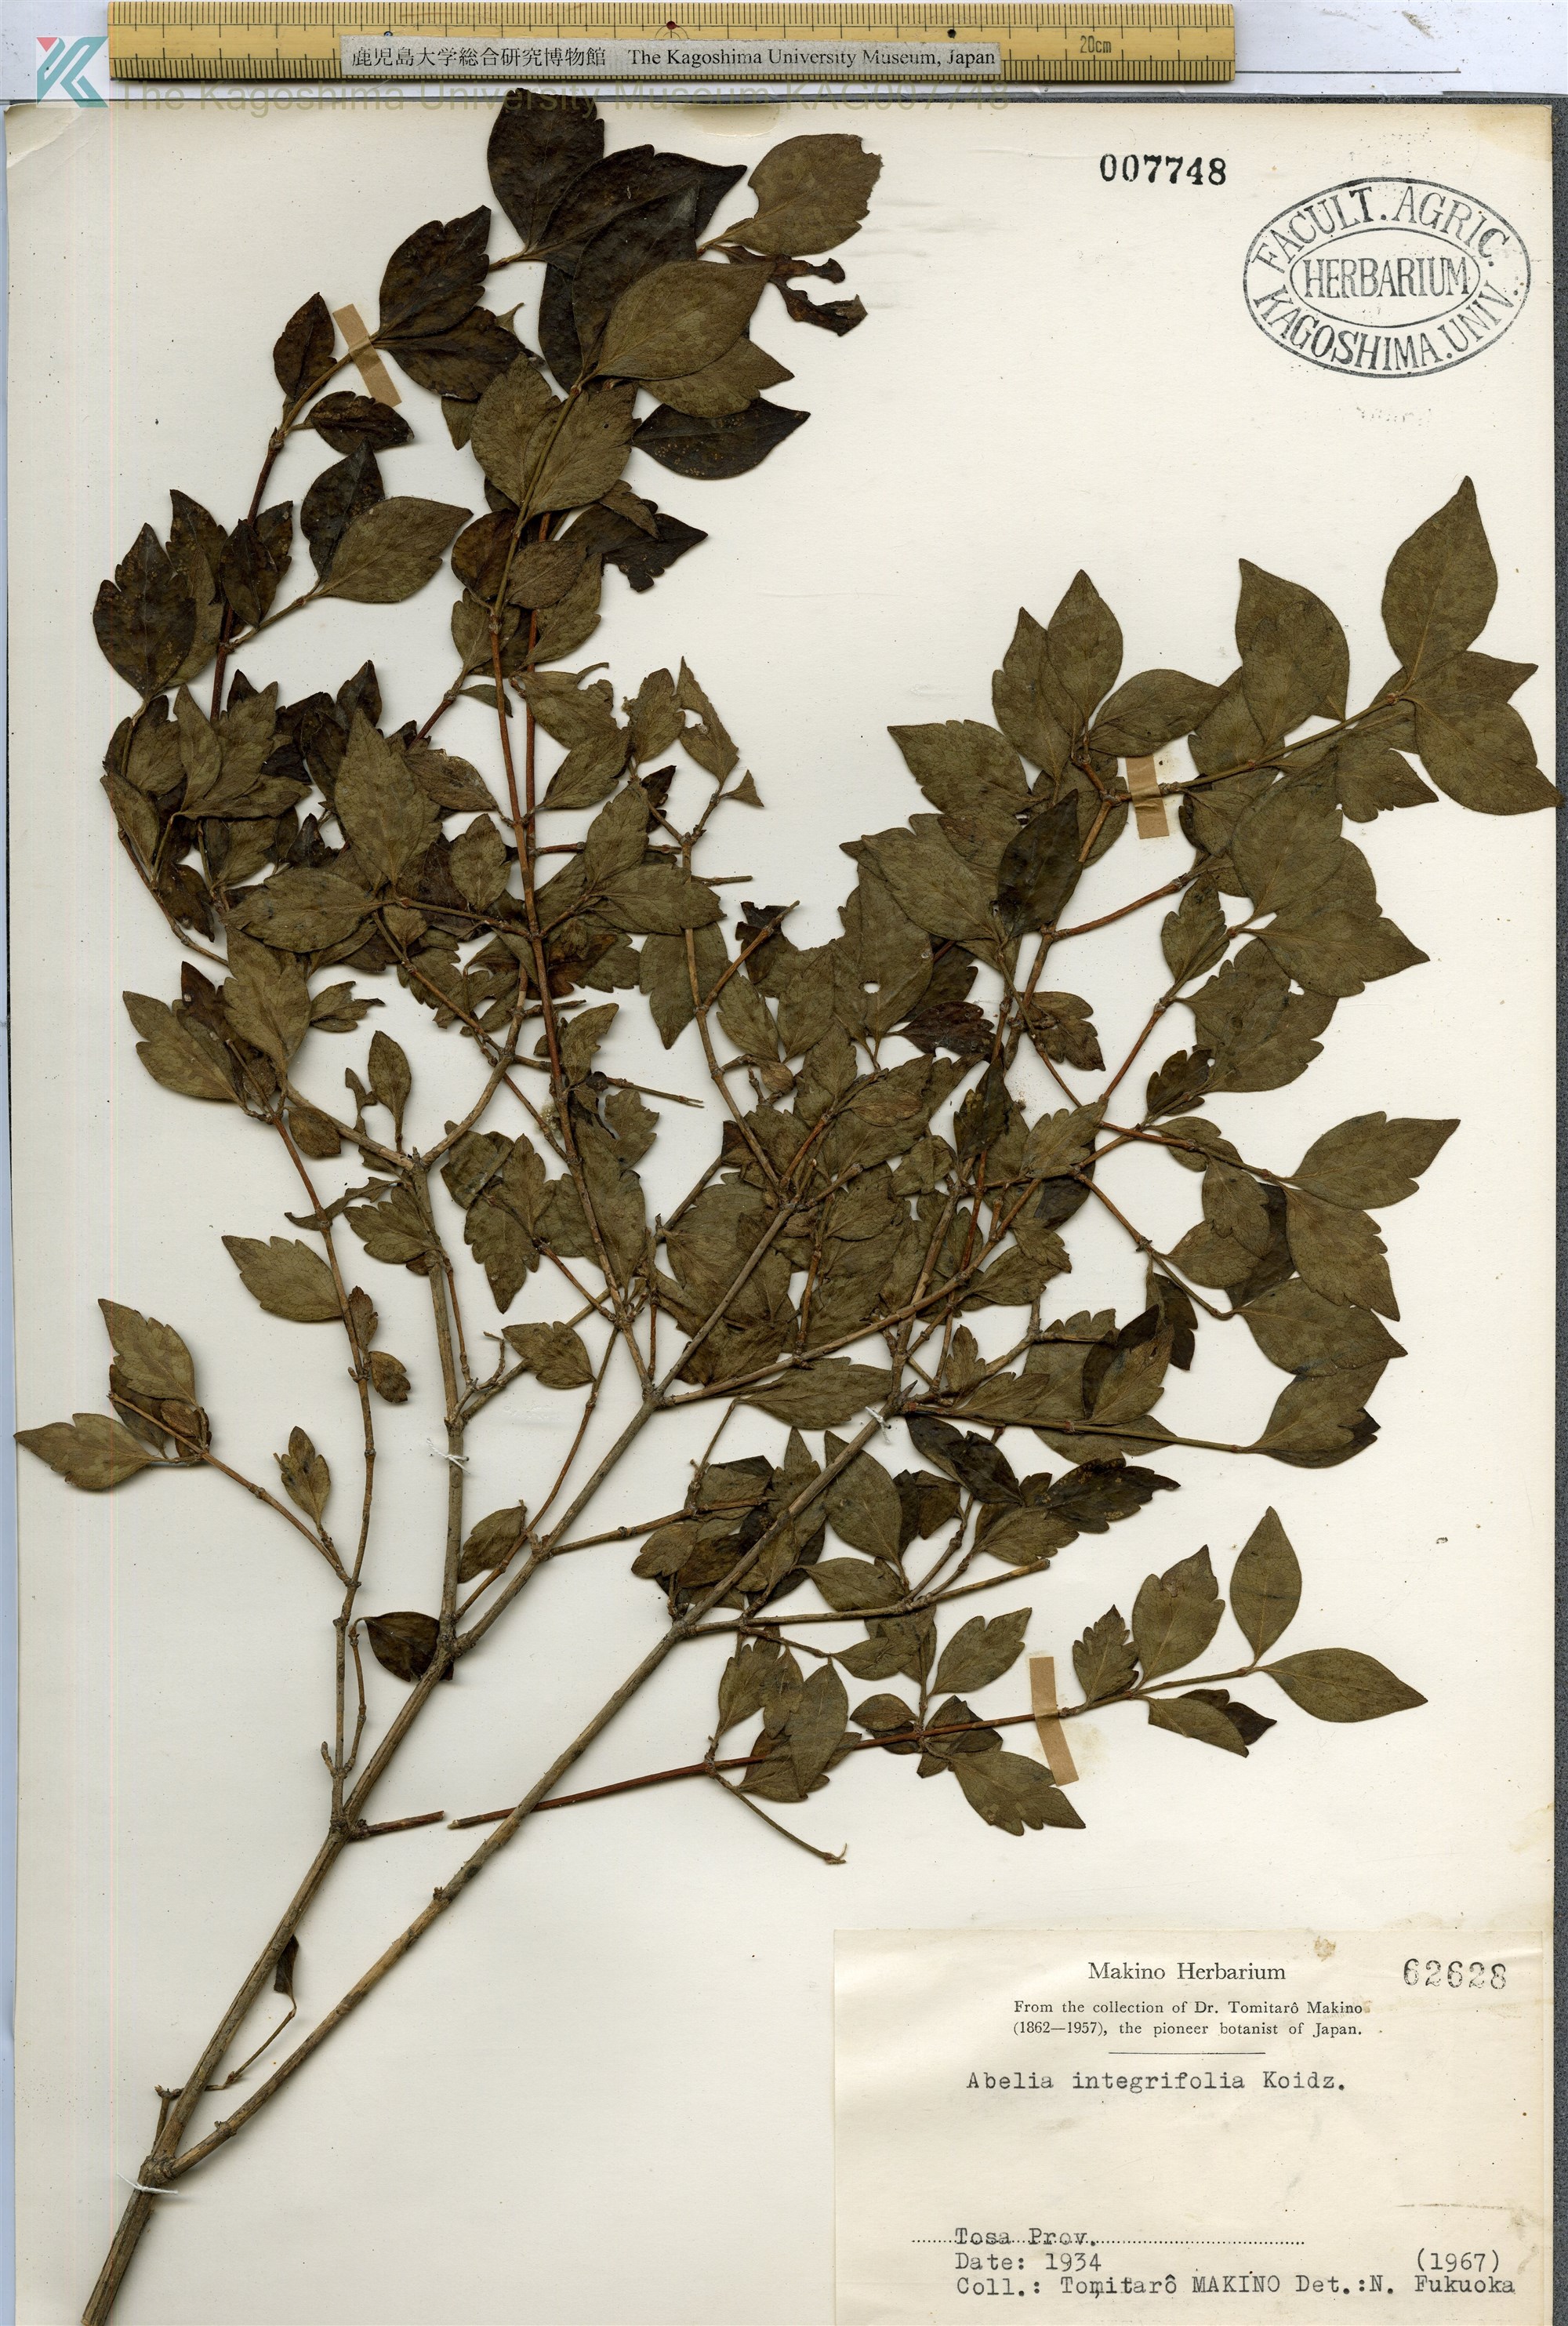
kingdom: Plantae
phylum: Tracheophyta
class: Magnoliopsida
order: Dipsacales
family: Caprifoliaceae
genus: Zabelia
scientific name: Zabelia integrifolia
